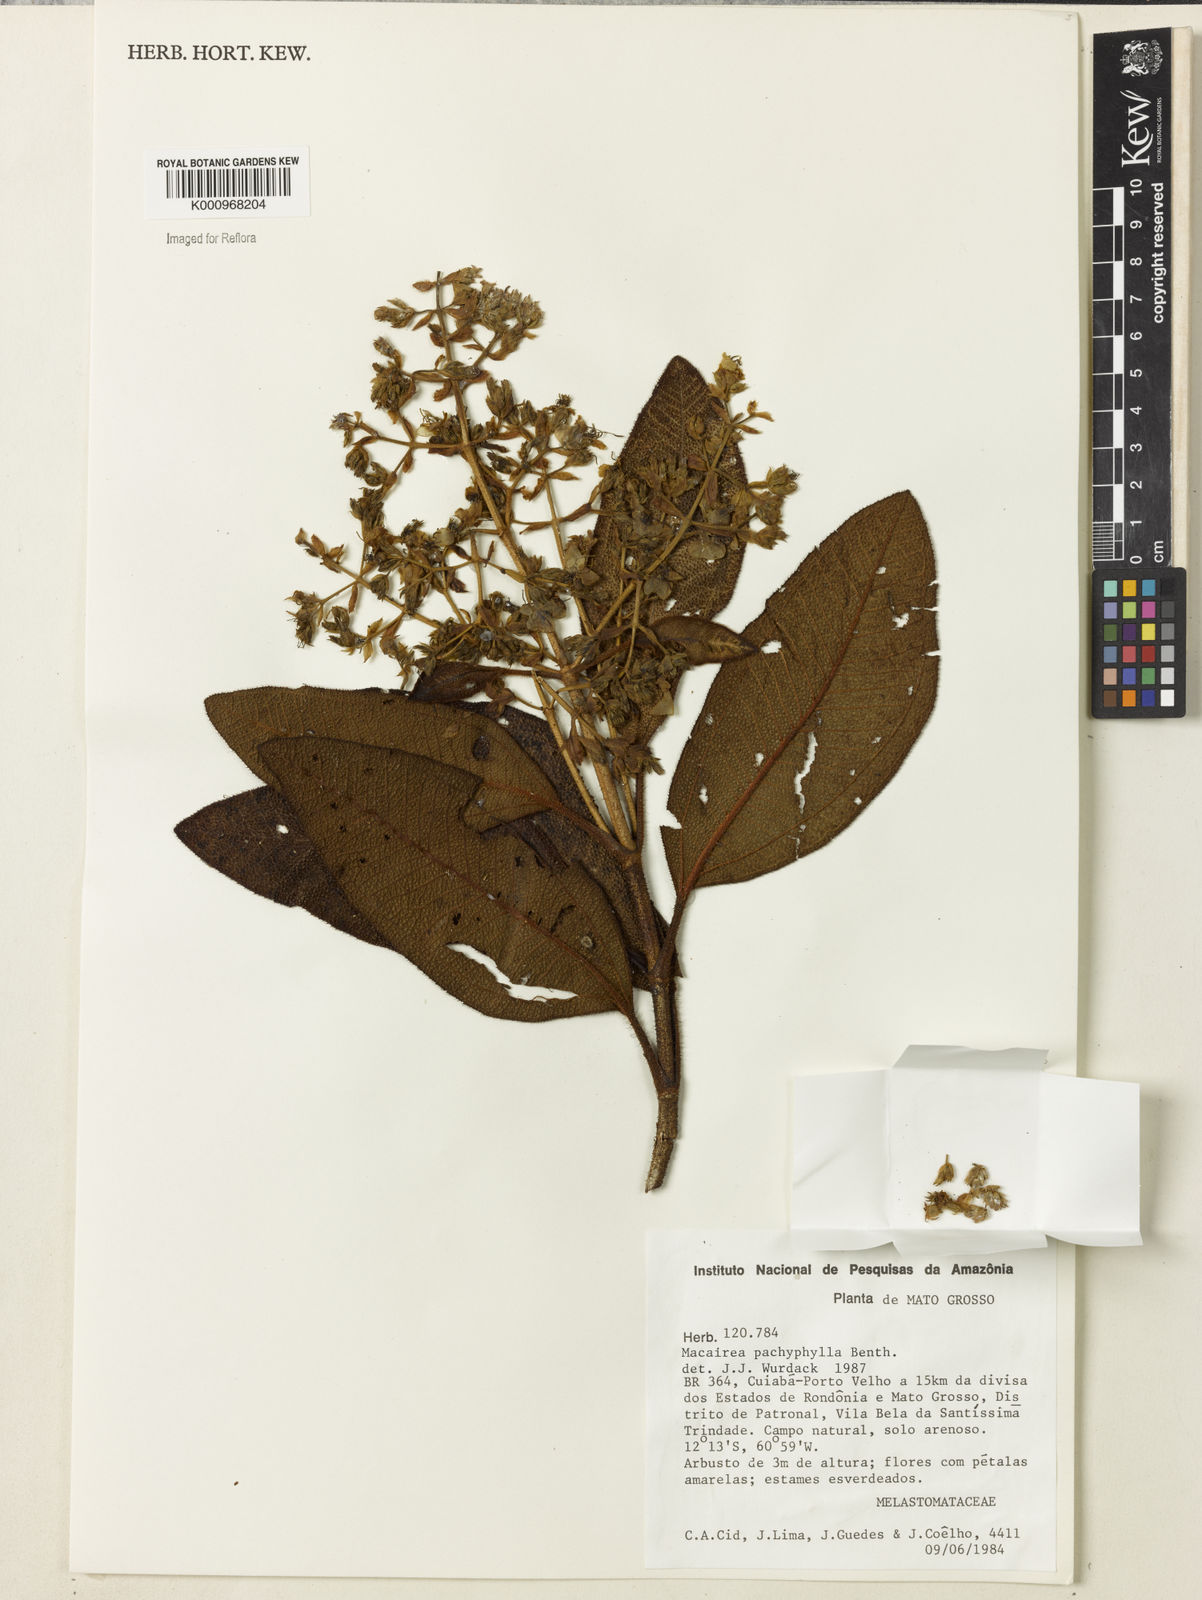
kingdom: Plantae
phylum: Tracheophyta
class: Magnoliopsida
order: Myrtales
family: Melastomataceae
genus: Macairea
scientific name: Macairea pachyphylla
